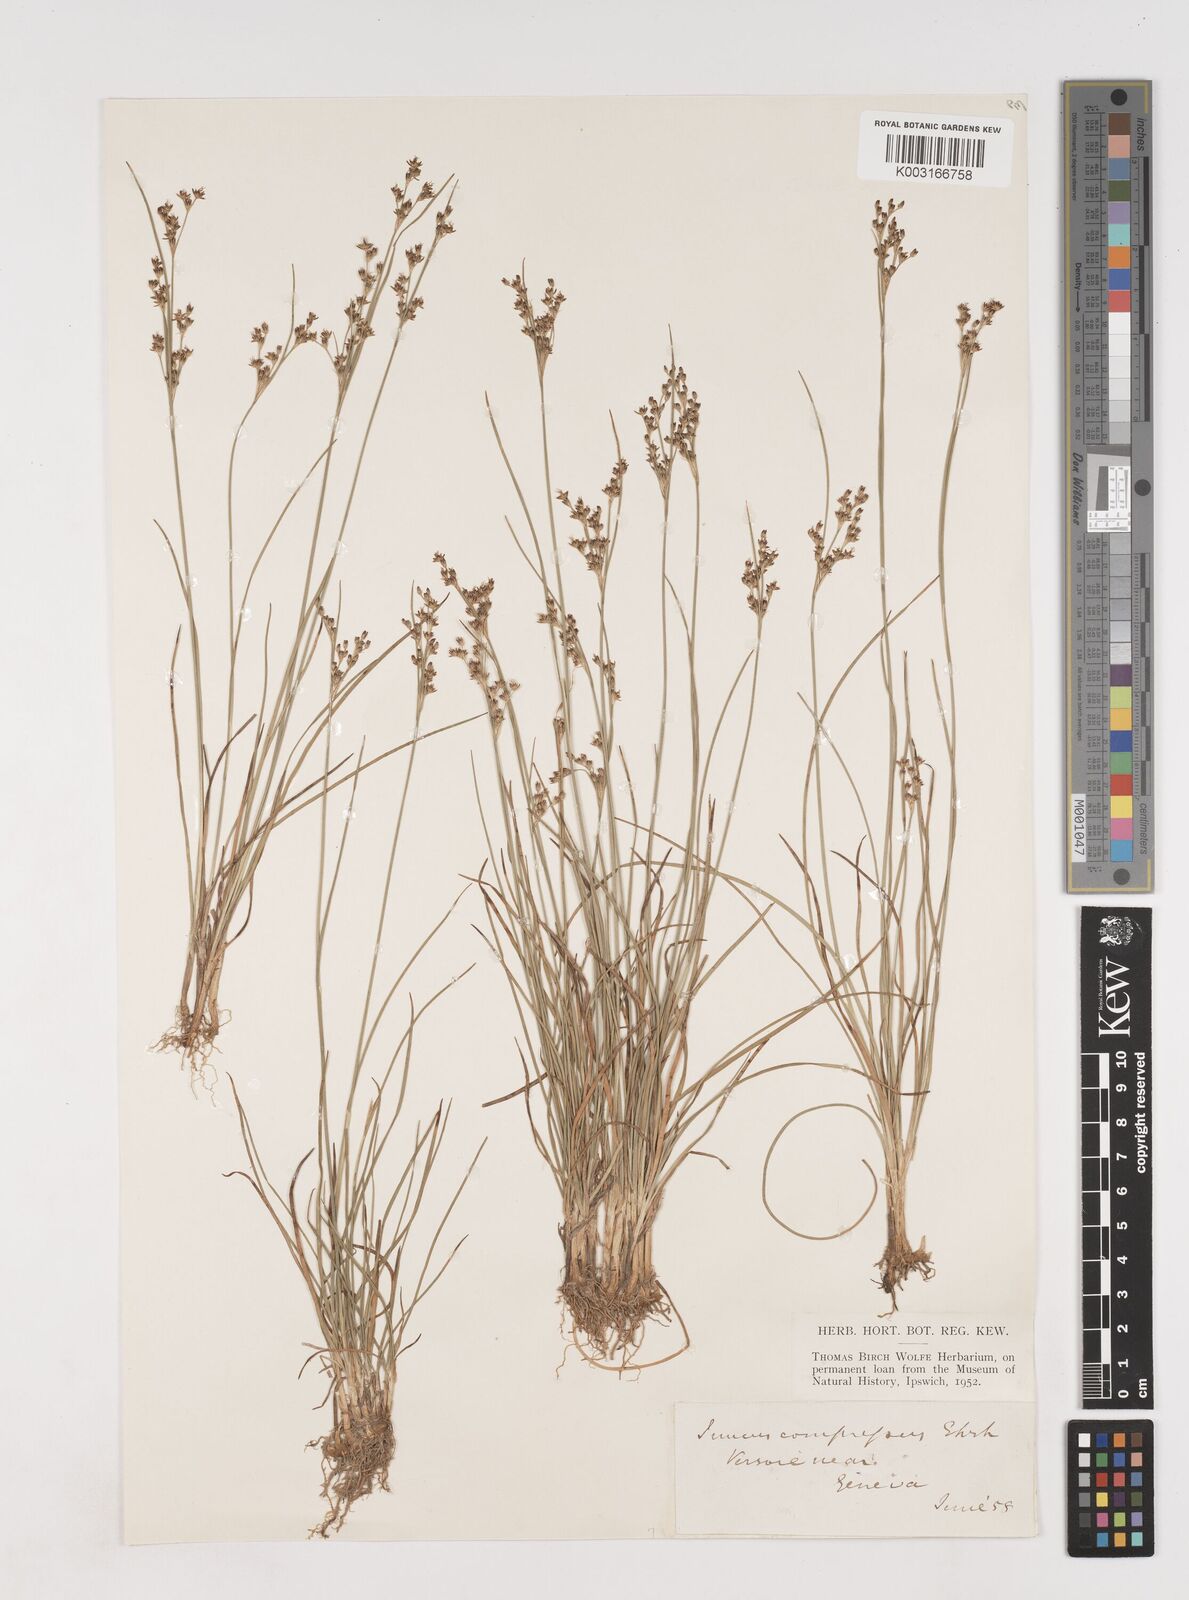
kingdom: Plantae
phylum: Tracheophyta
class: Liliopsida
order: Poales
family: Juncaceae
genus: Juncus
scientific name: Juncus
